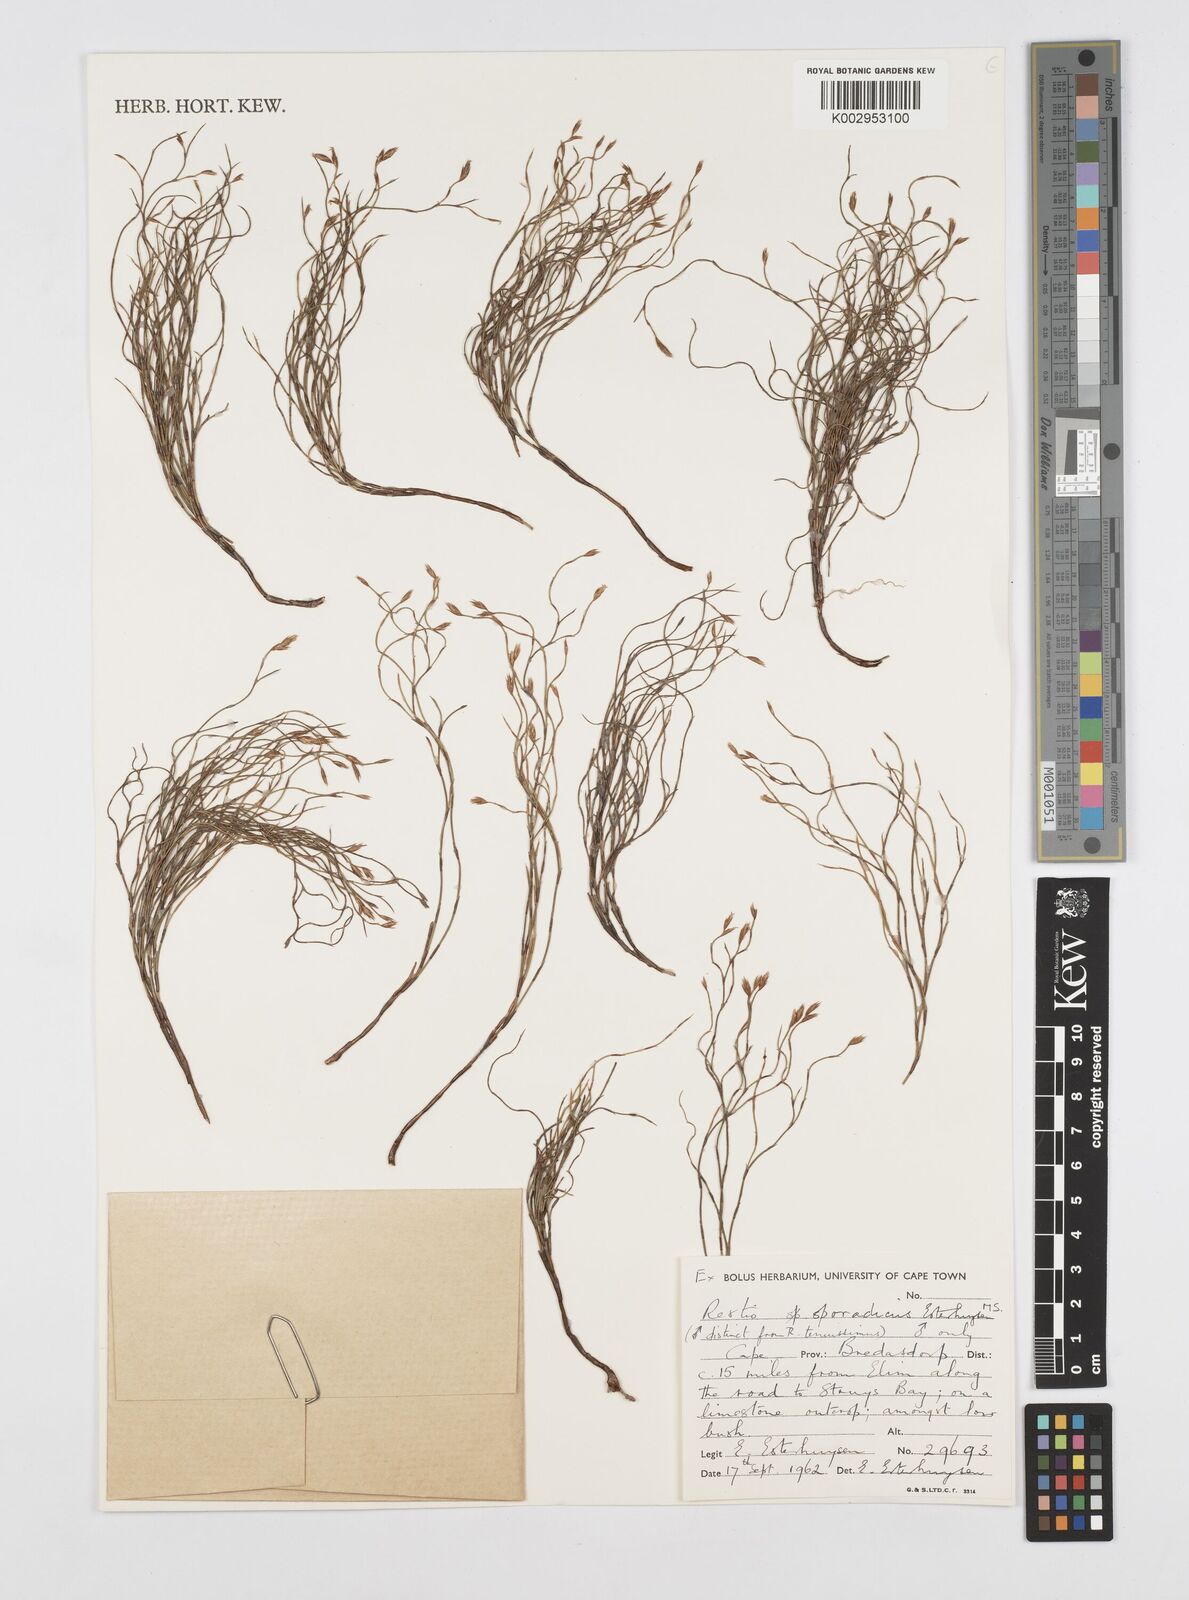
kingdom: Plantae
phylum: Tracheophyta
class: Liliopsida
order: Poales
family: Restionaceae
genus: Restio
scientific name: Restio sporadicus
